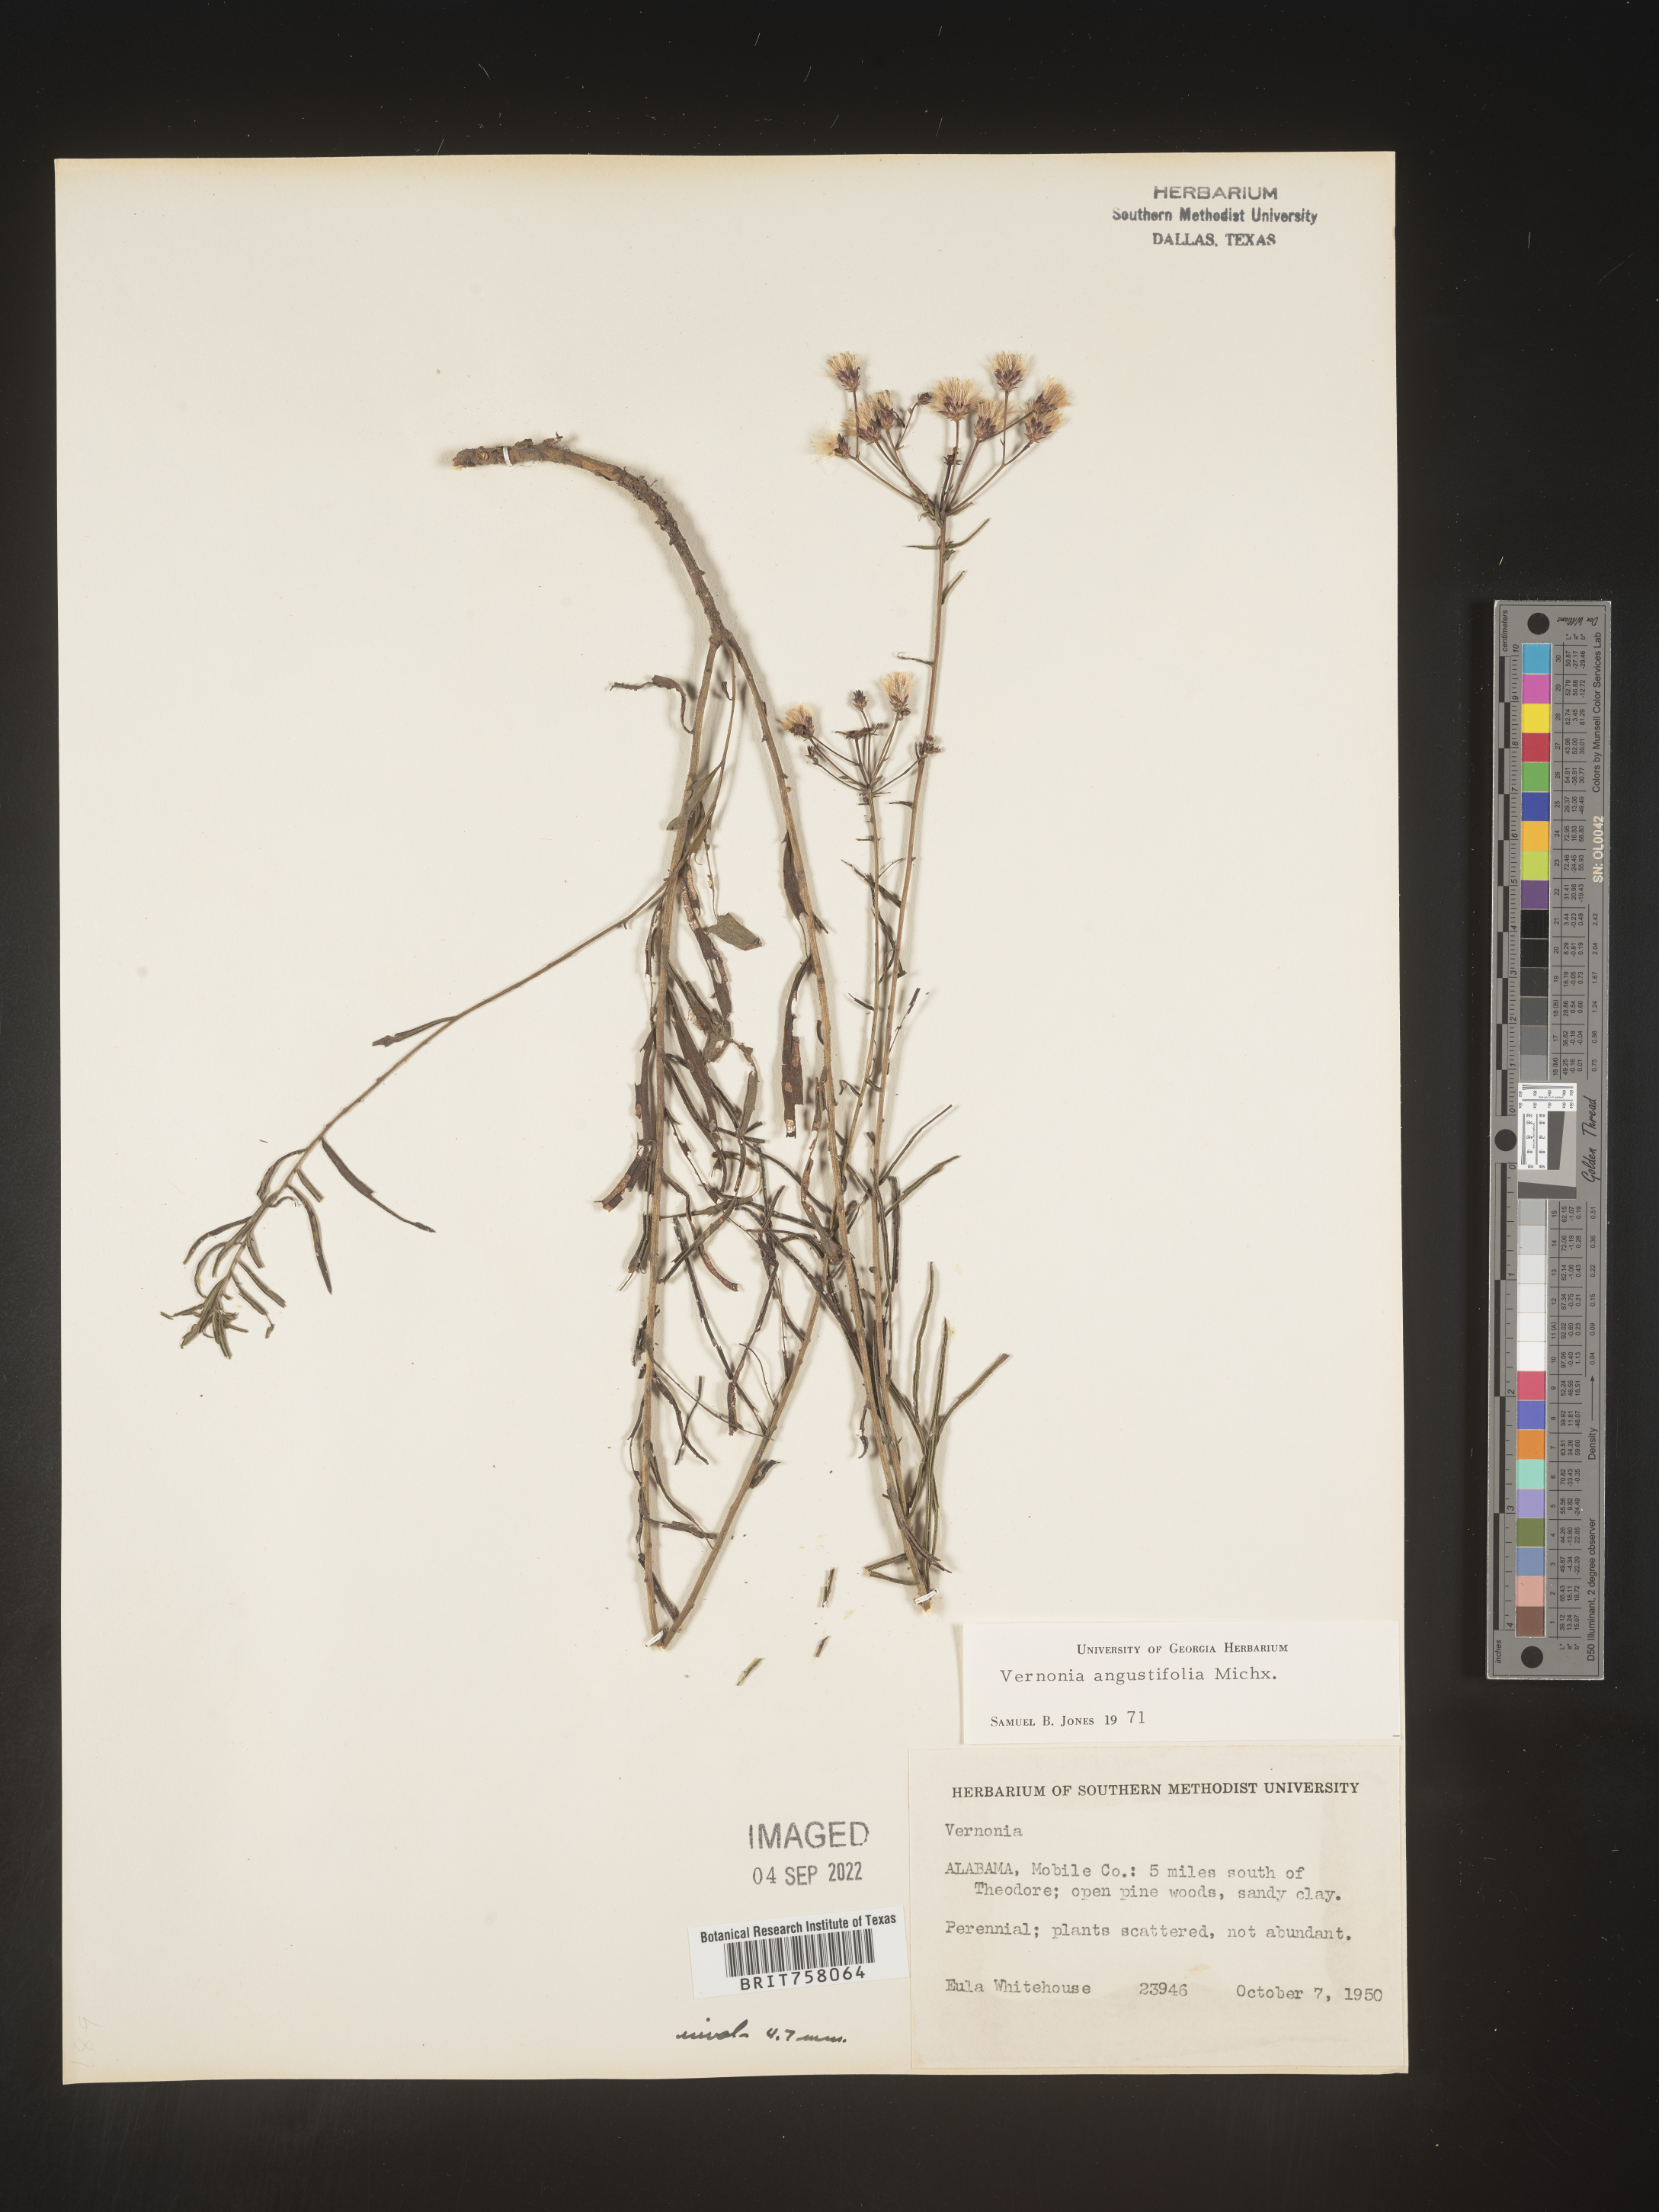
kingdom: Plantae
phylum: Tracheophyta
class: Magnoliopsida
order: Asterales
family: Asteraceae
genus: Vernonia
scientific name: Vernonia angustifolia
